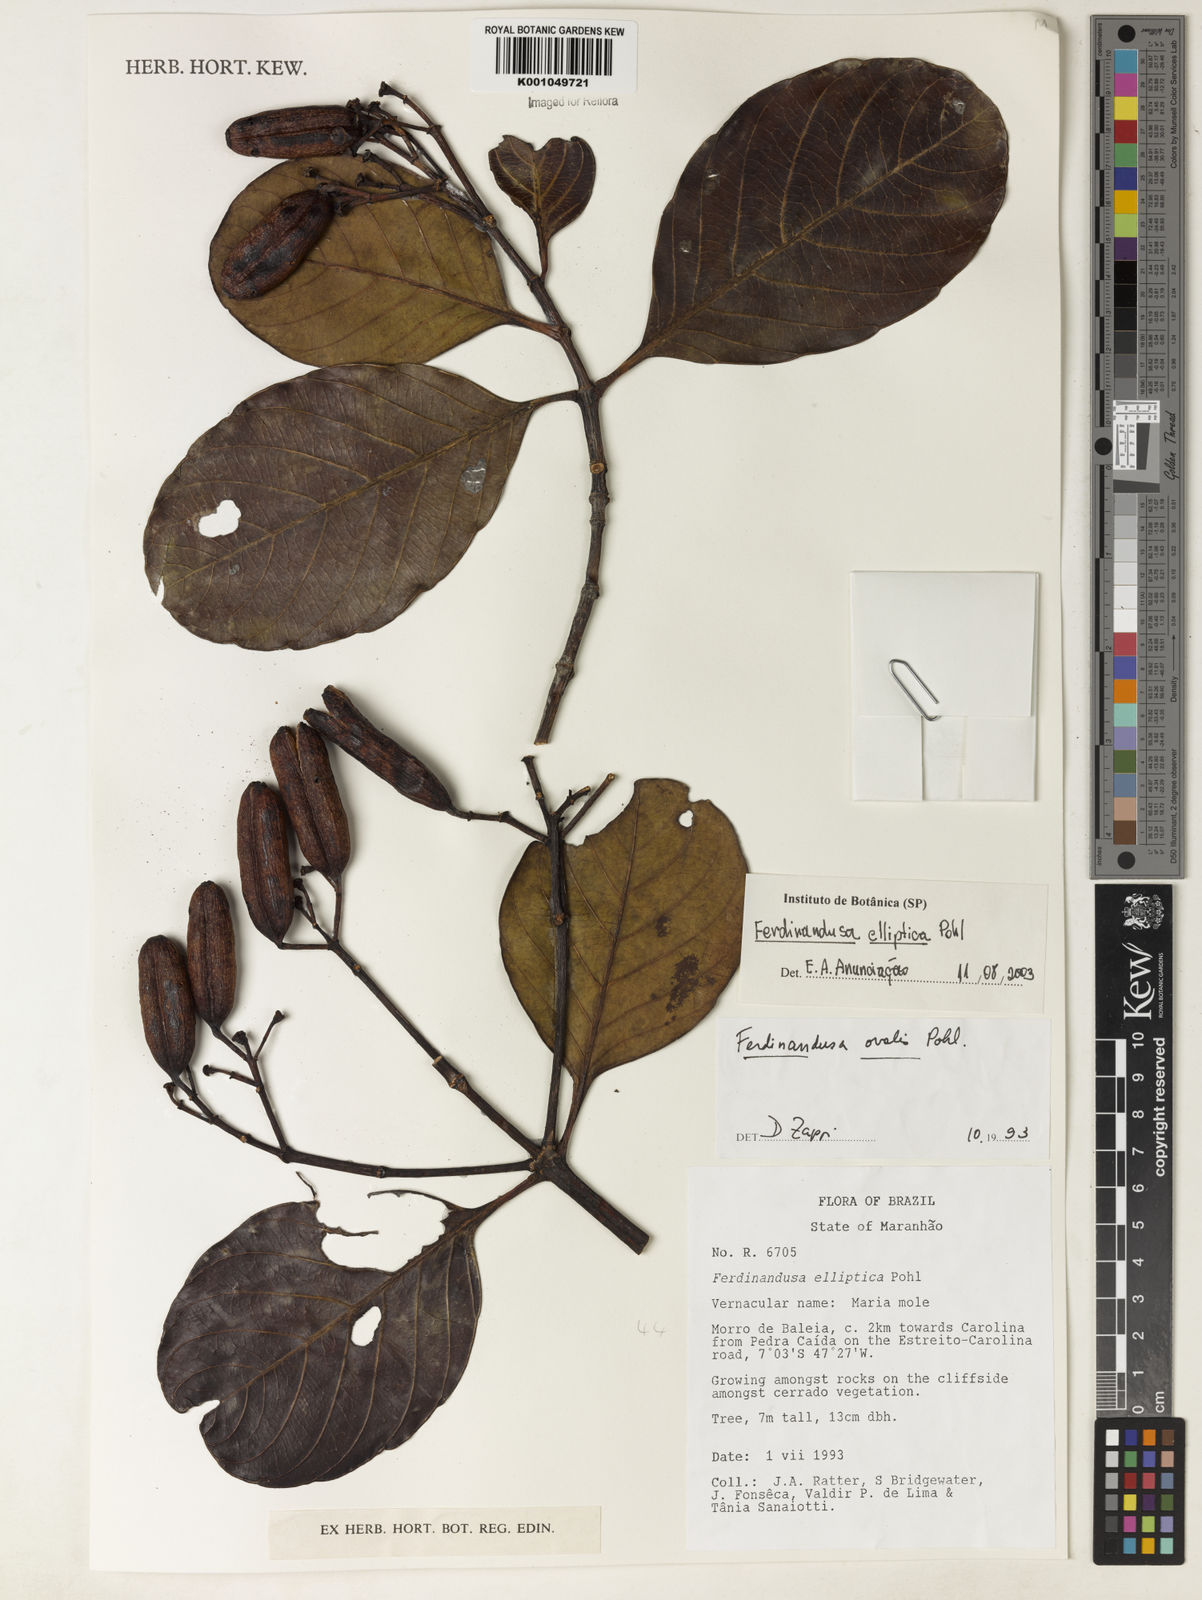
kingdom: Plantae
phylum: Tracheophyta
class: Magnoliopsida
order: Gentianales
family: Rubiaceae
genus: Ferdinandusa
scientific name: Ferdinandusa elliptica
